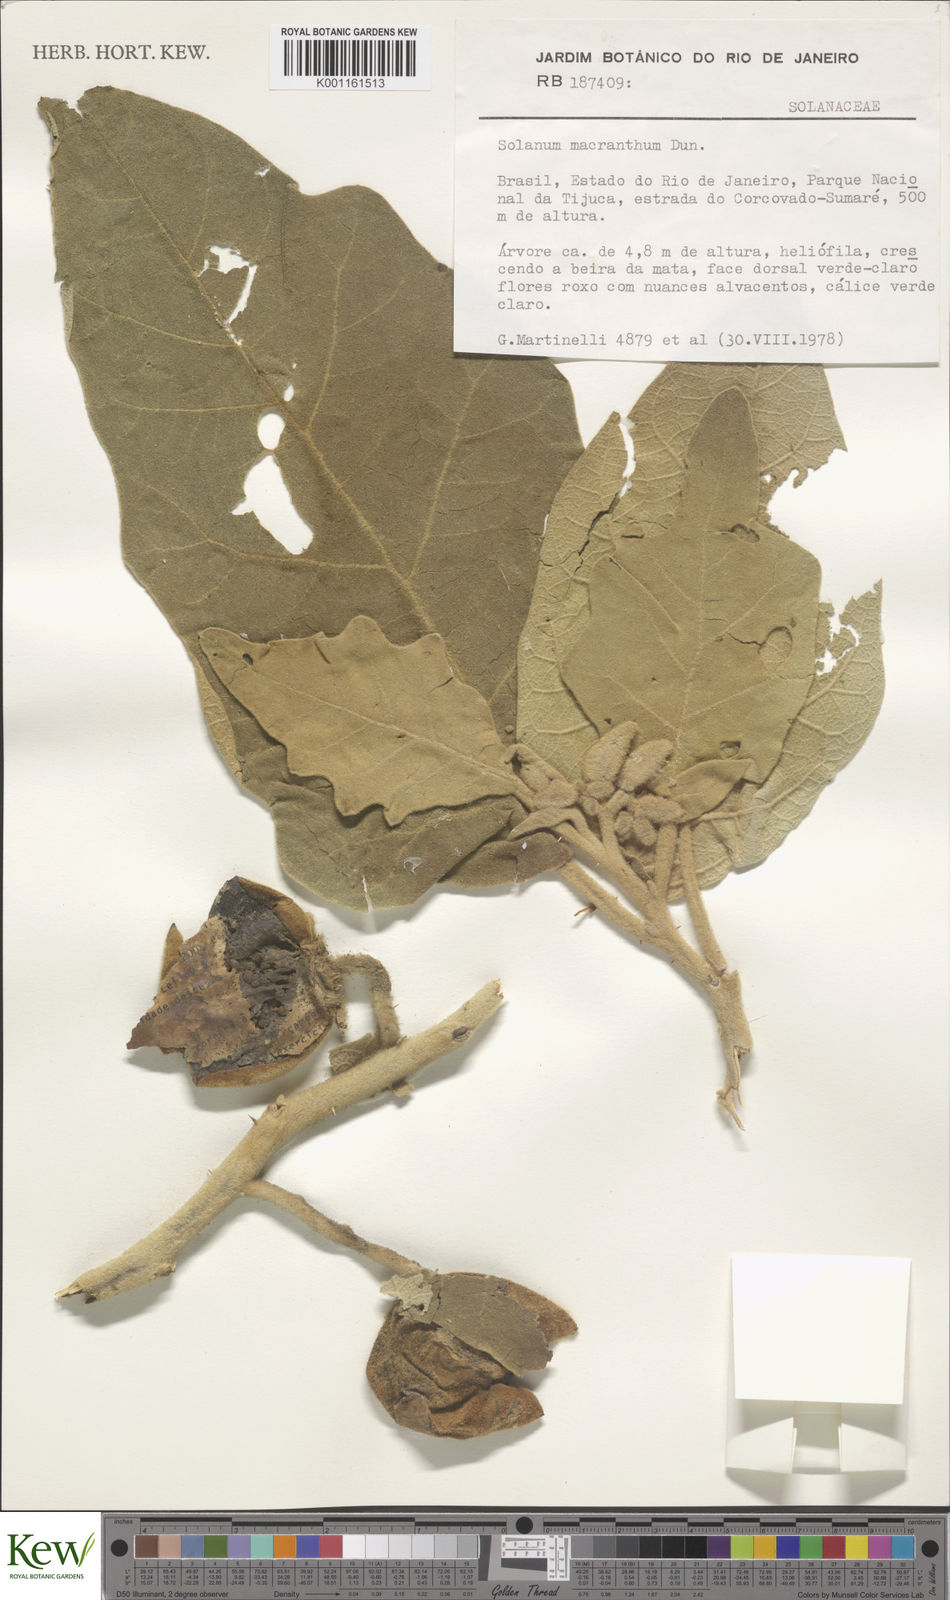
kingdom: Plantae
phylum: Tracheophyta
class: Magnoliopsida
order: Solanales
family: Solanaceae
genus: Solanum
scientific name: Solanum crinitum
